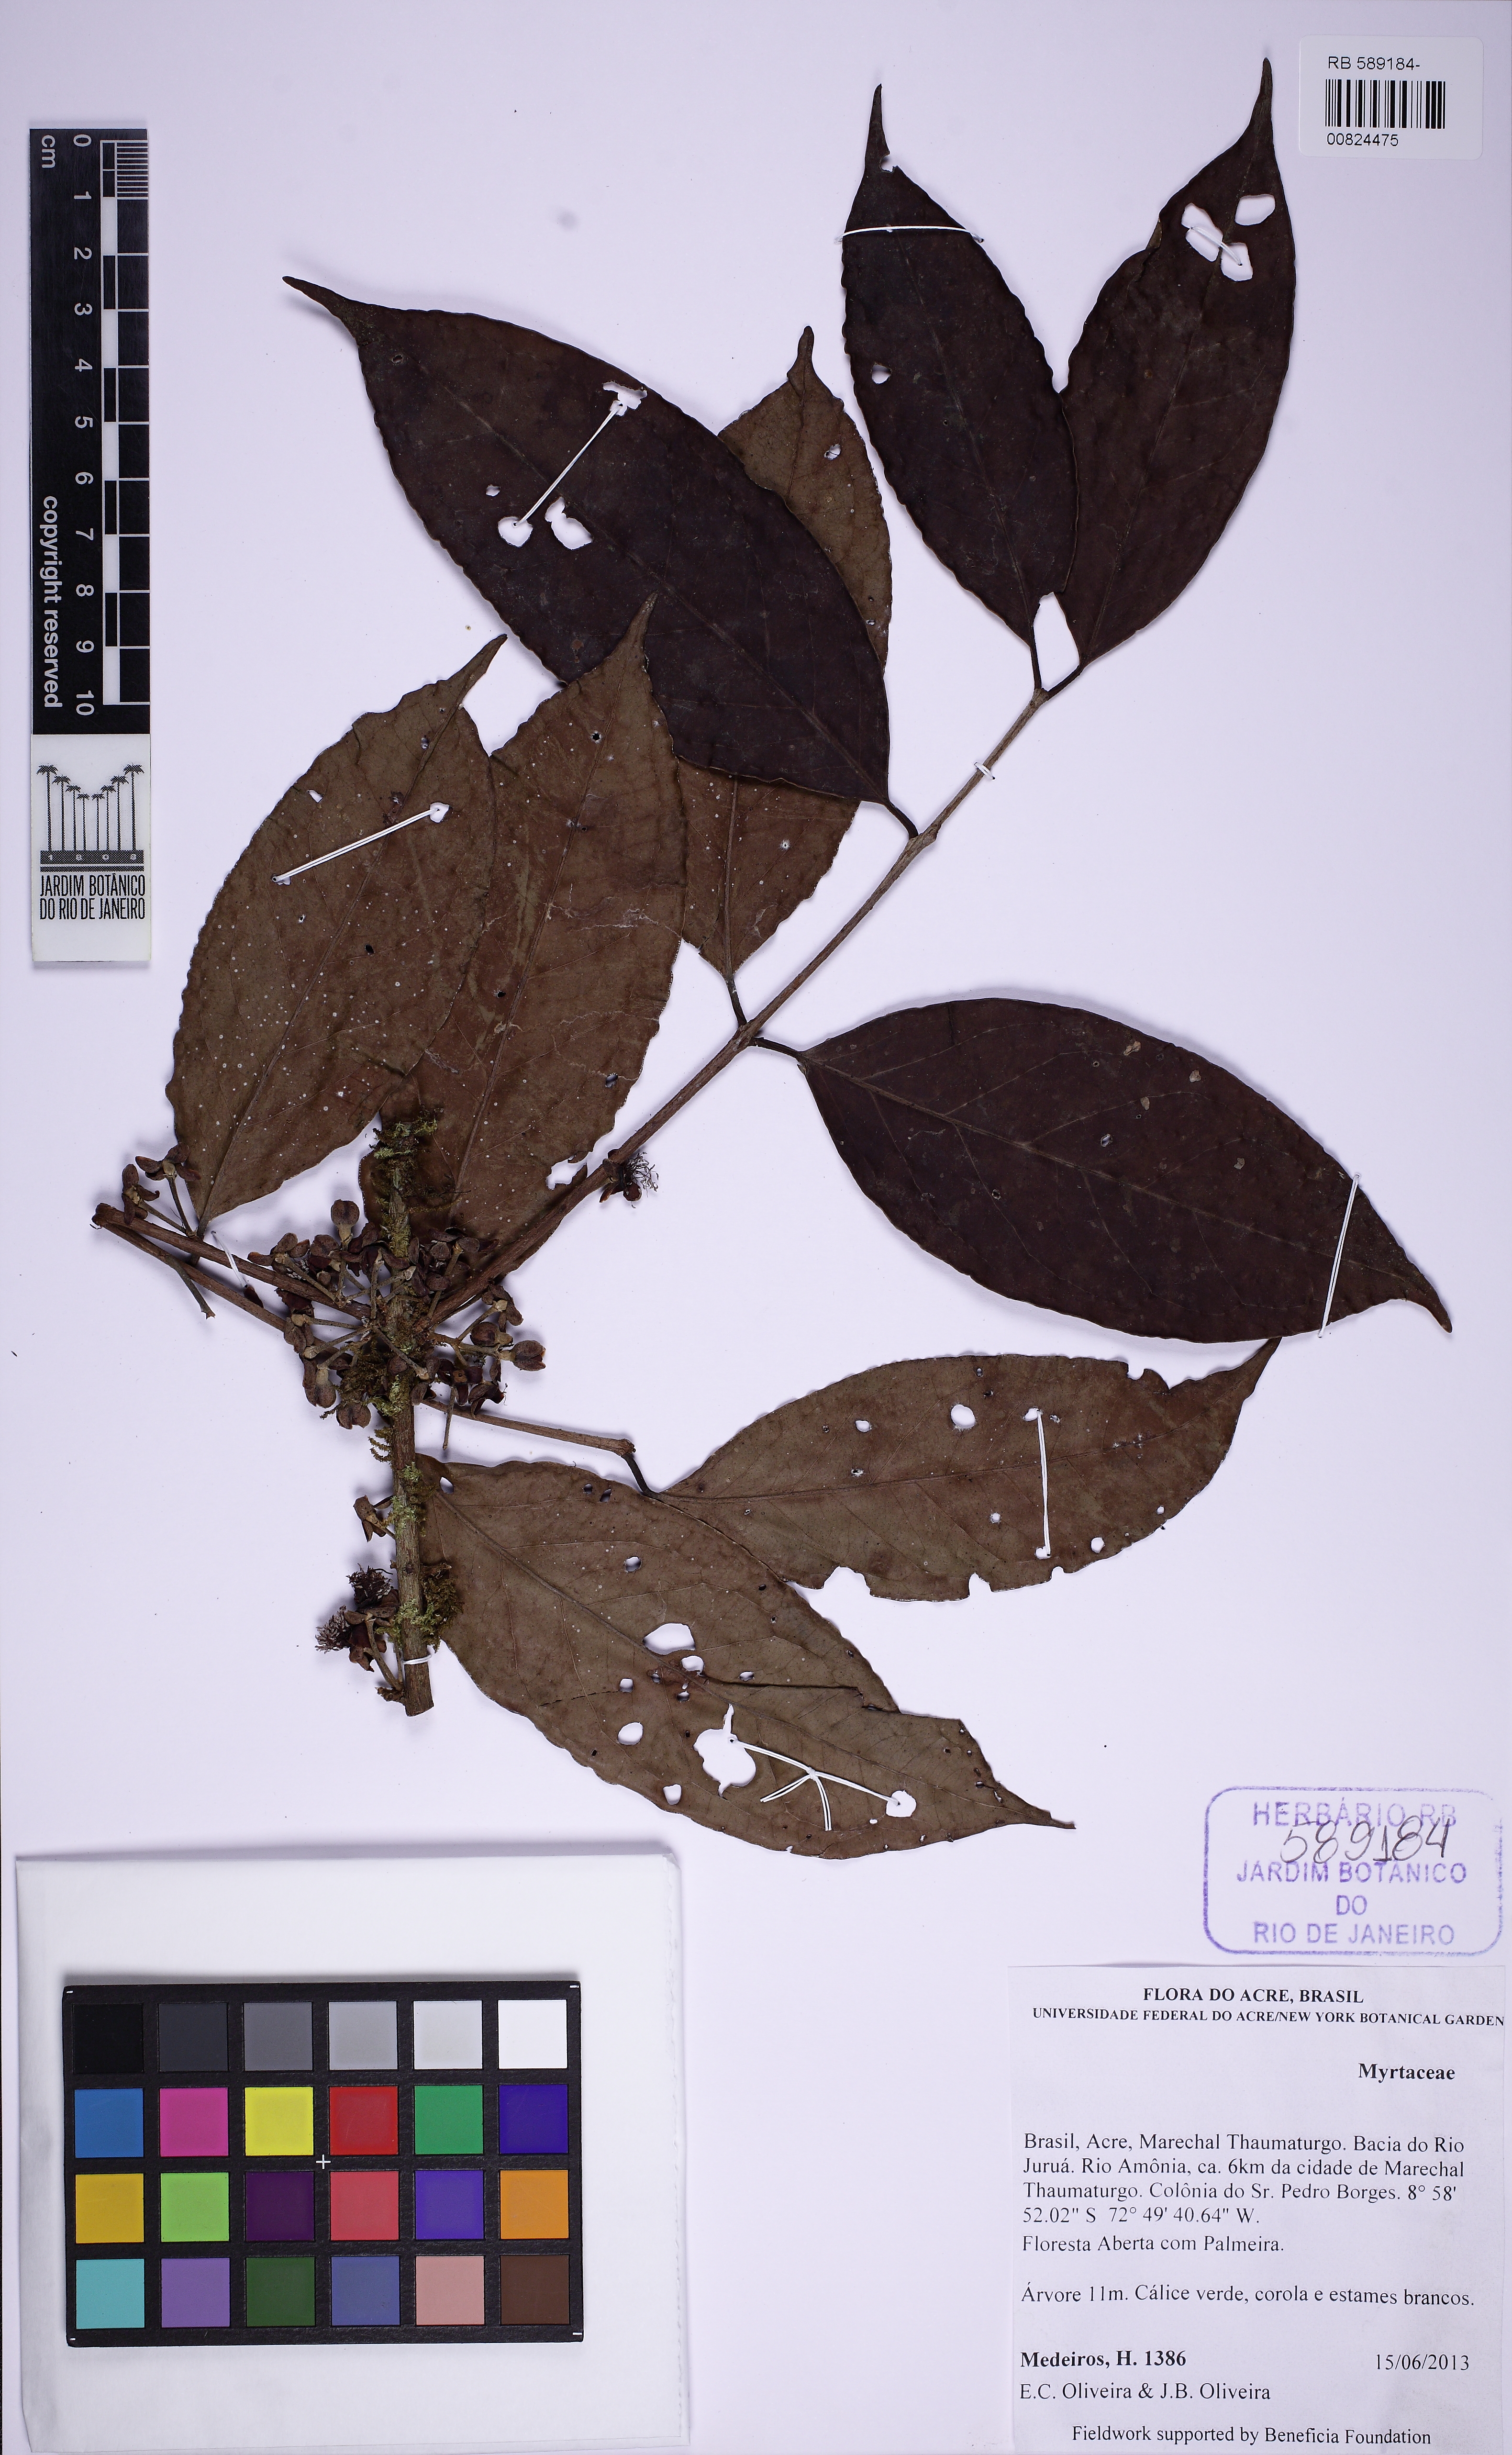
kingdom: Plantae
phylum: Tracheophyta
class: Magnoliopsida
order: Myrtales
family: Myrtaceae
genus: Eugenia
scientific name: Eugenia moschata
